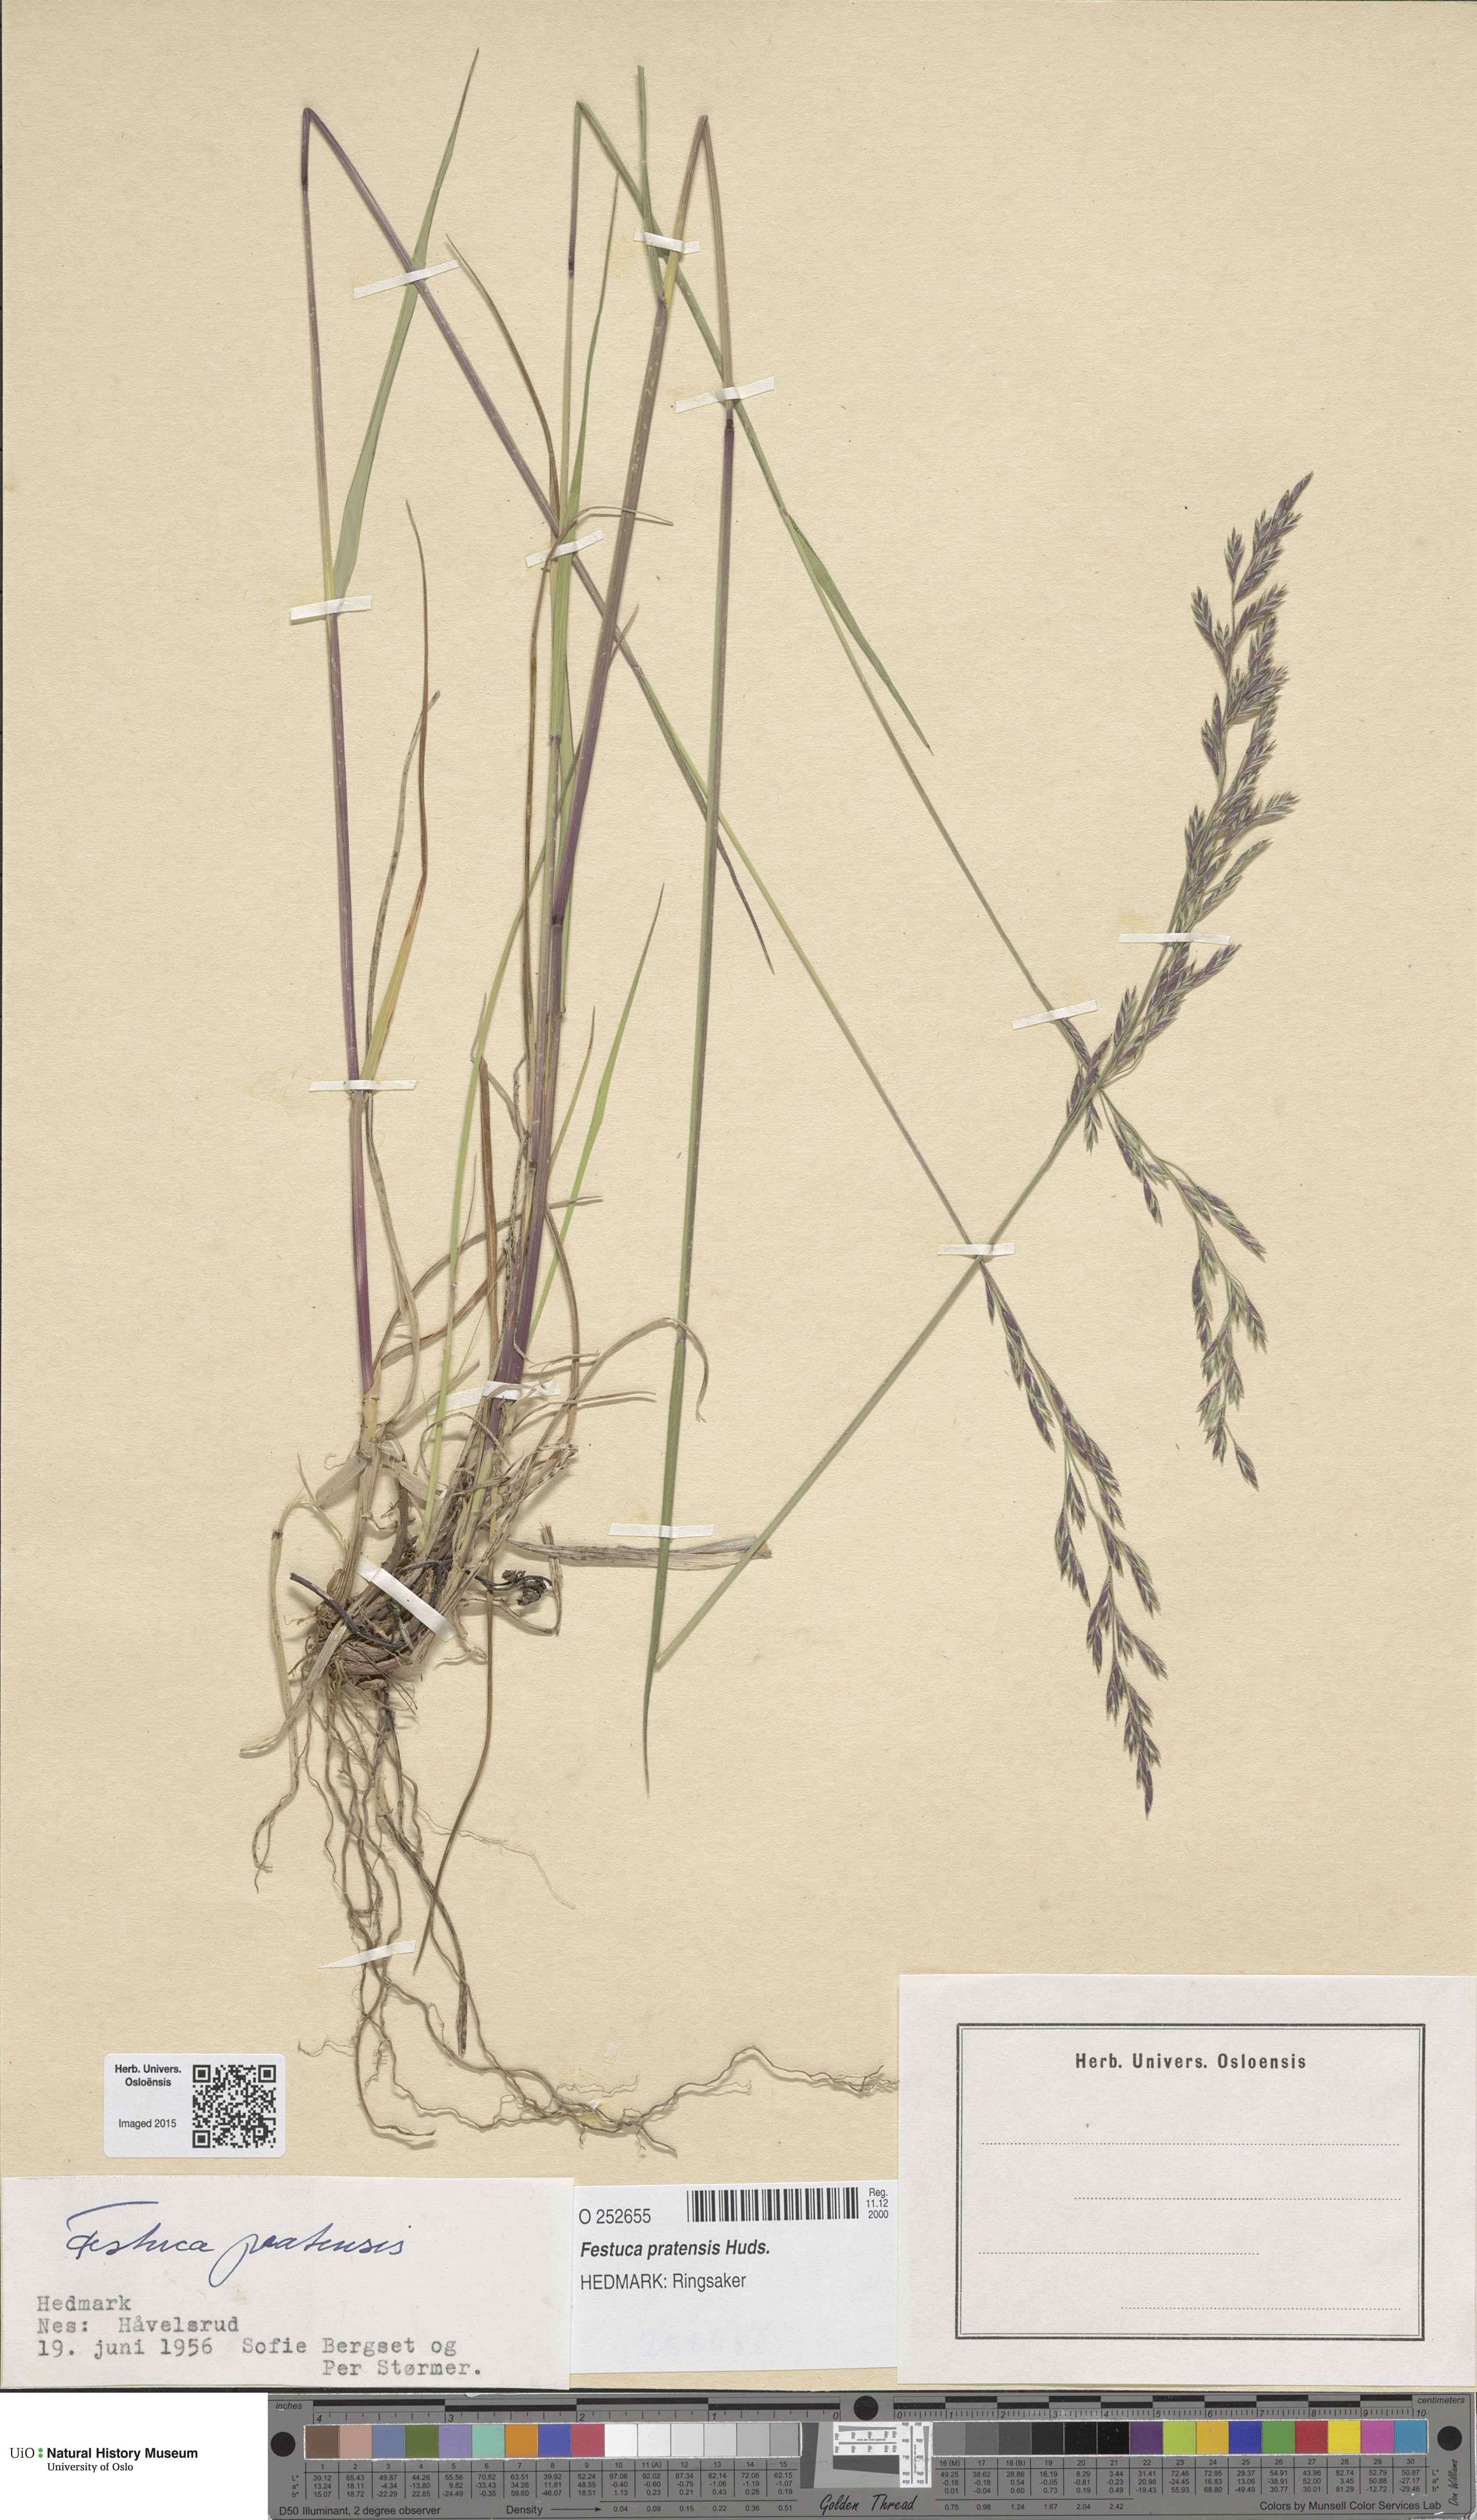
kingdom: Plantae
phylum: Tracheophyta
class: Liliopsida
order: Poales
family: Poaceae
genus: Lolium
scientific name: Lolium pratense
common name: Dover grass
